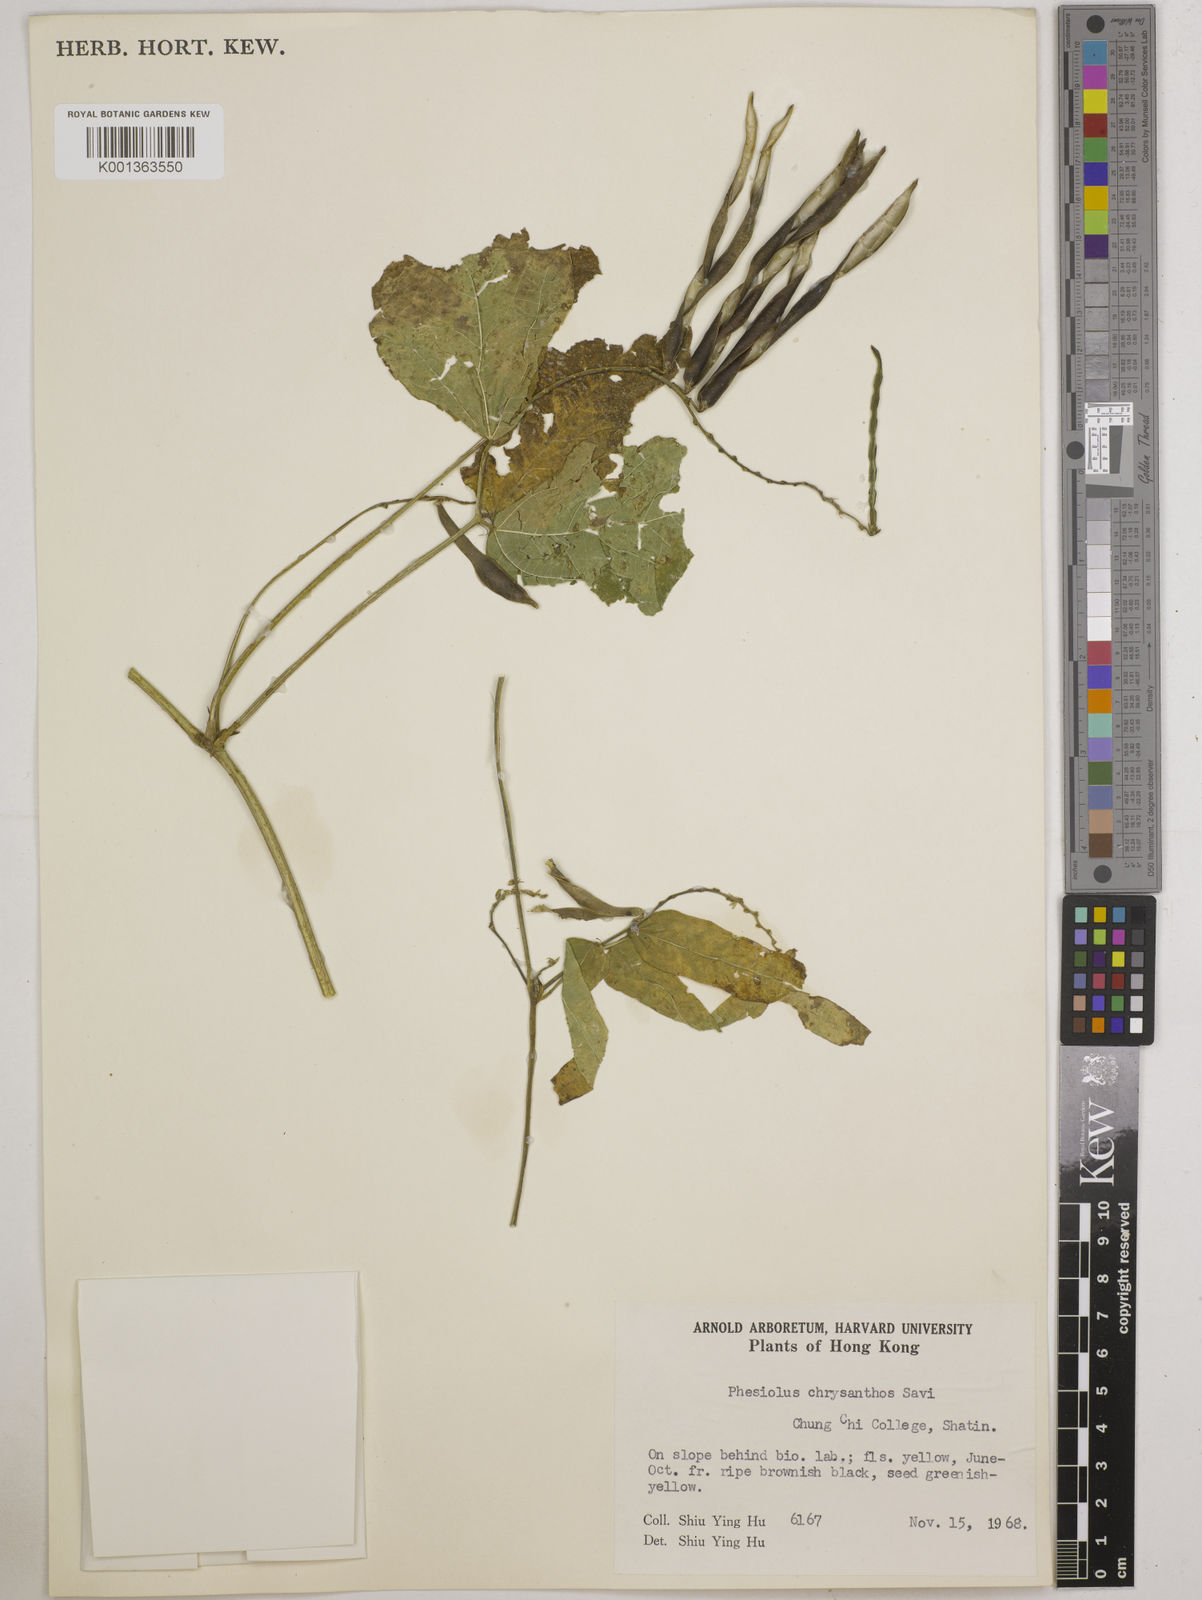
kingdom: Plantae
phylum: Tracheophyta
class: Magnoliopsida
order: Fabales
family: Fabaceae
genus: Vigna
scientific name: Vigna umbellata
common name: Oriental-bean
